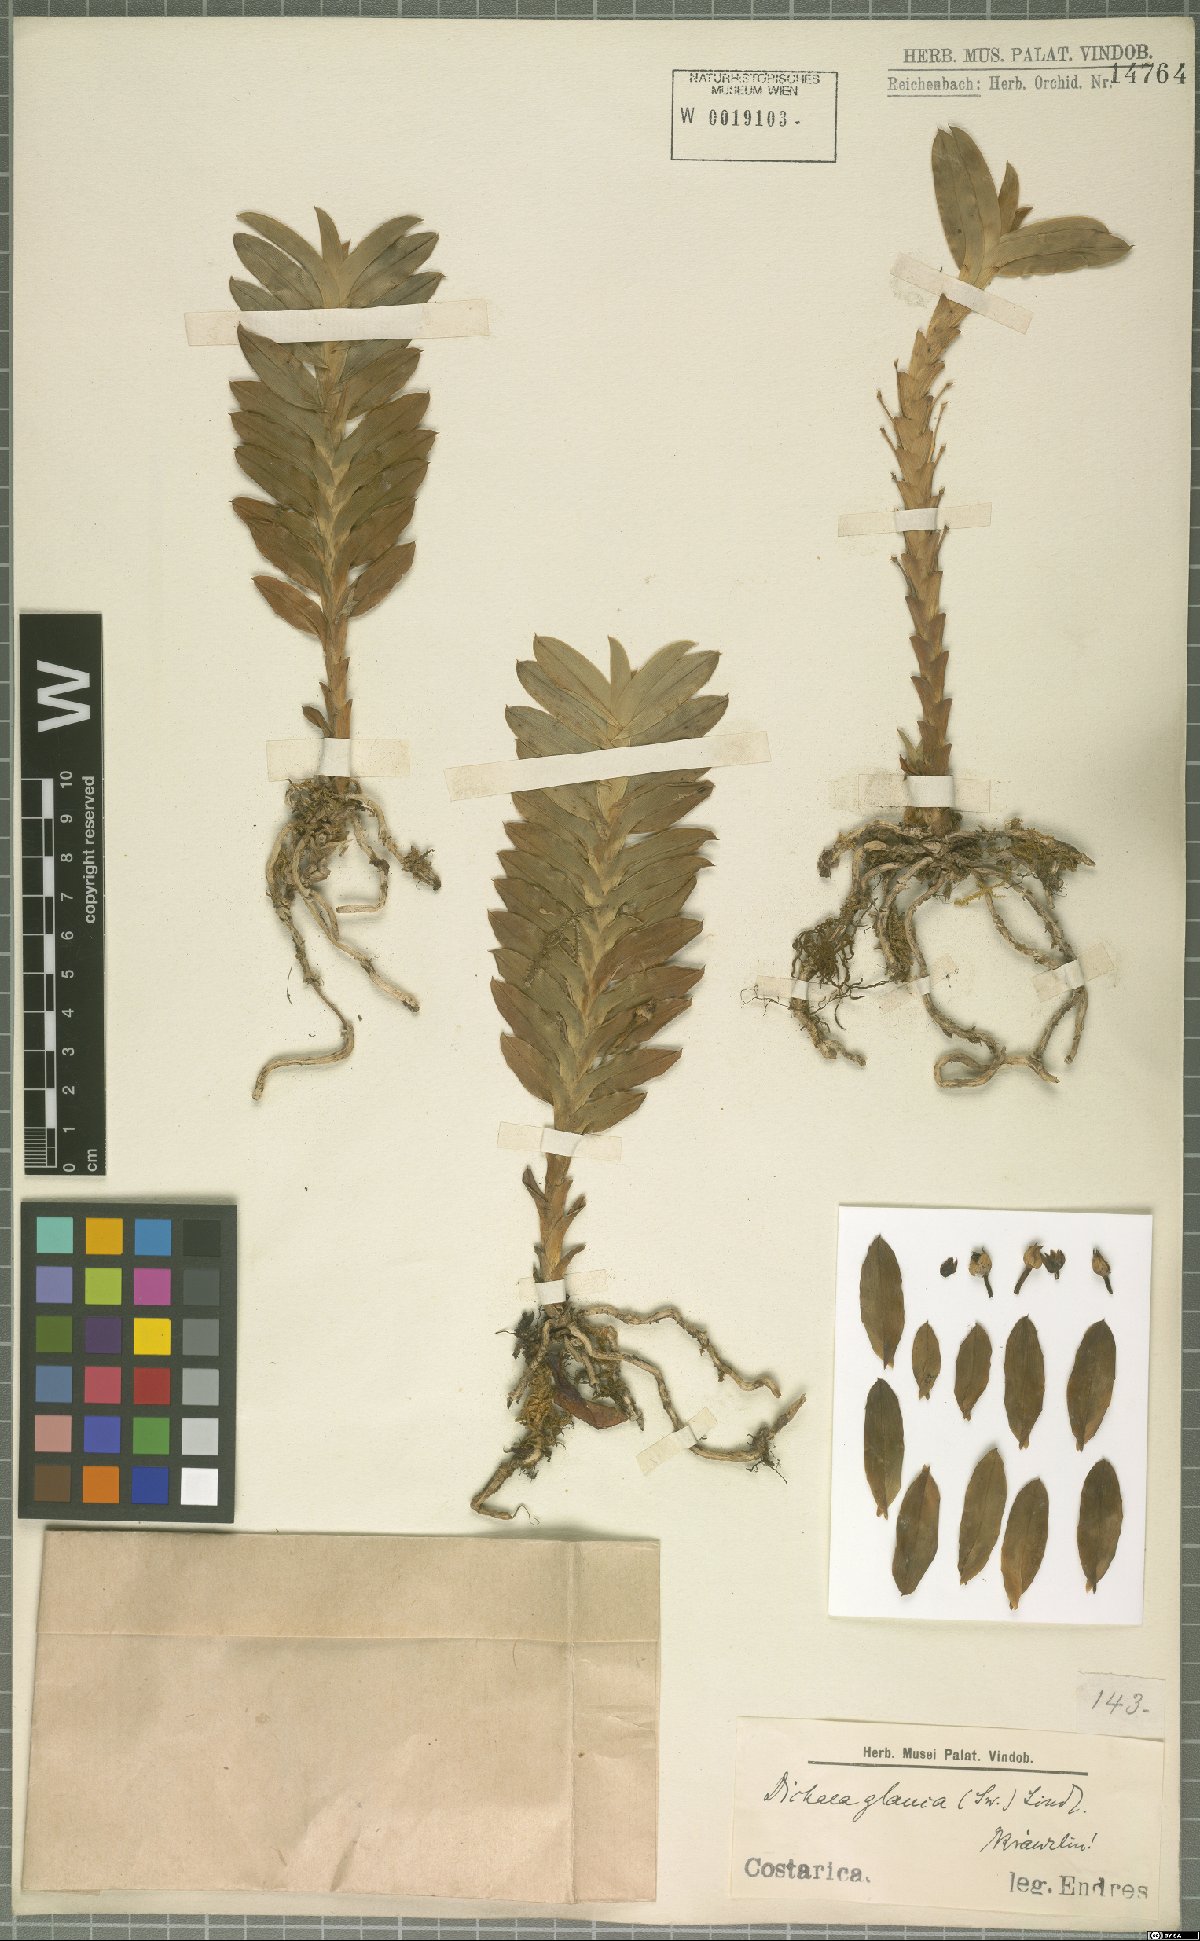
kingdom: Plantae
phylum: Tracheophyta
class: Liliopsida
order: Asparagales
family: Orchidaceae
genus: Dichaea
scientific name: Dichaea glauca
